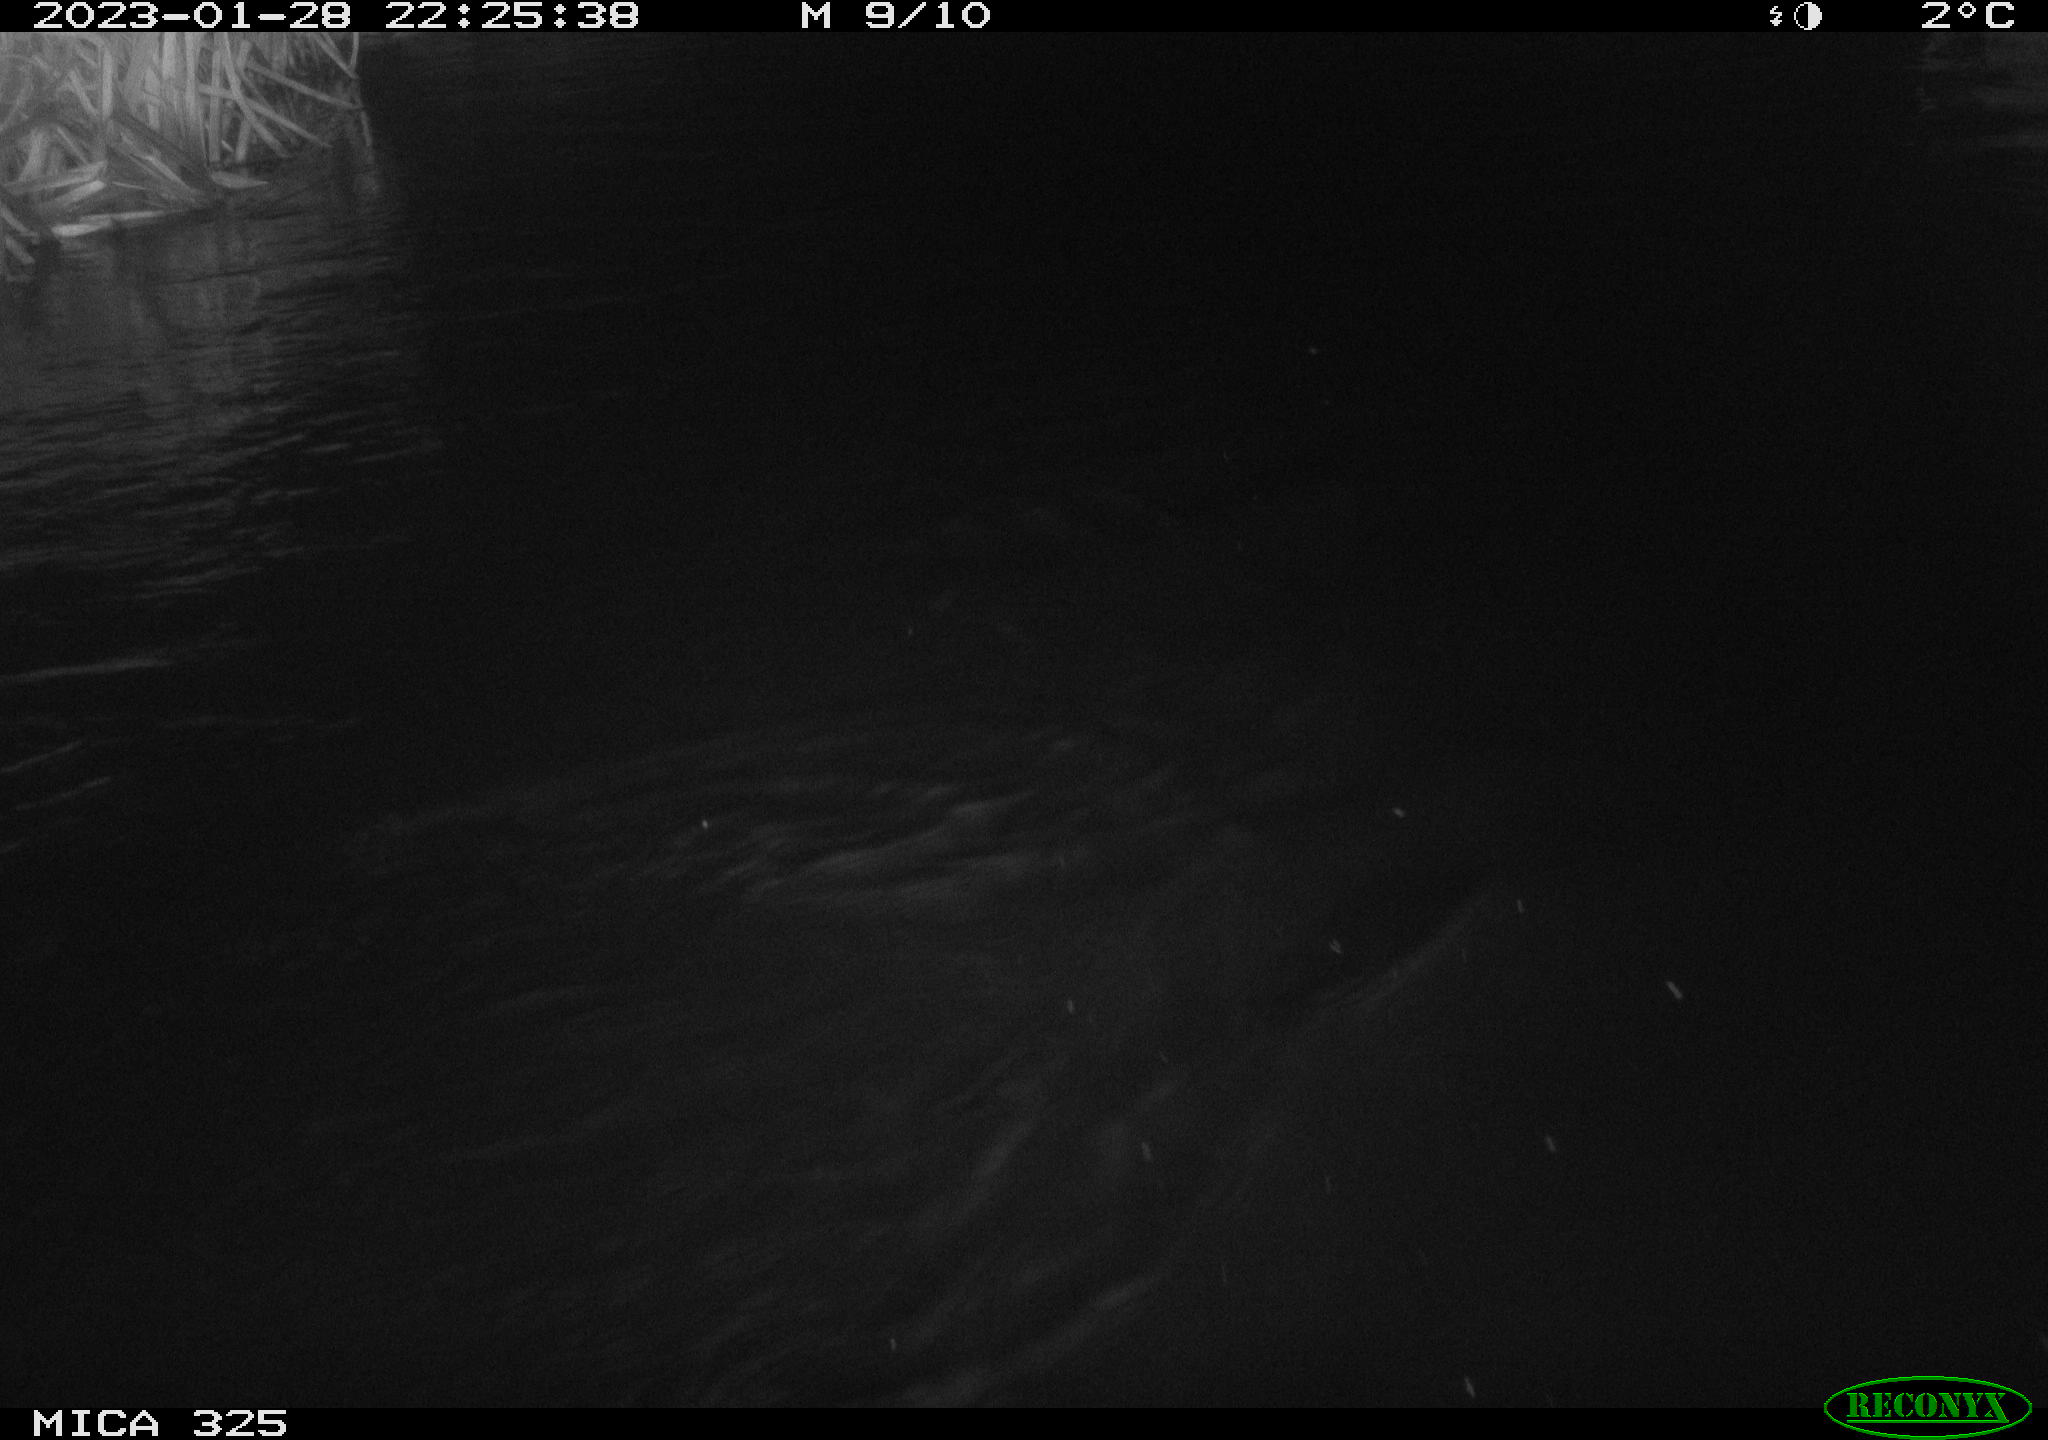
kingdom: Animalia
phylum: Chordata
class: Mammalia
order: Rodentia
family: Myocastoridae
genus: Myocastor
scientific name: Myocastor coypus
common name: Coypu
